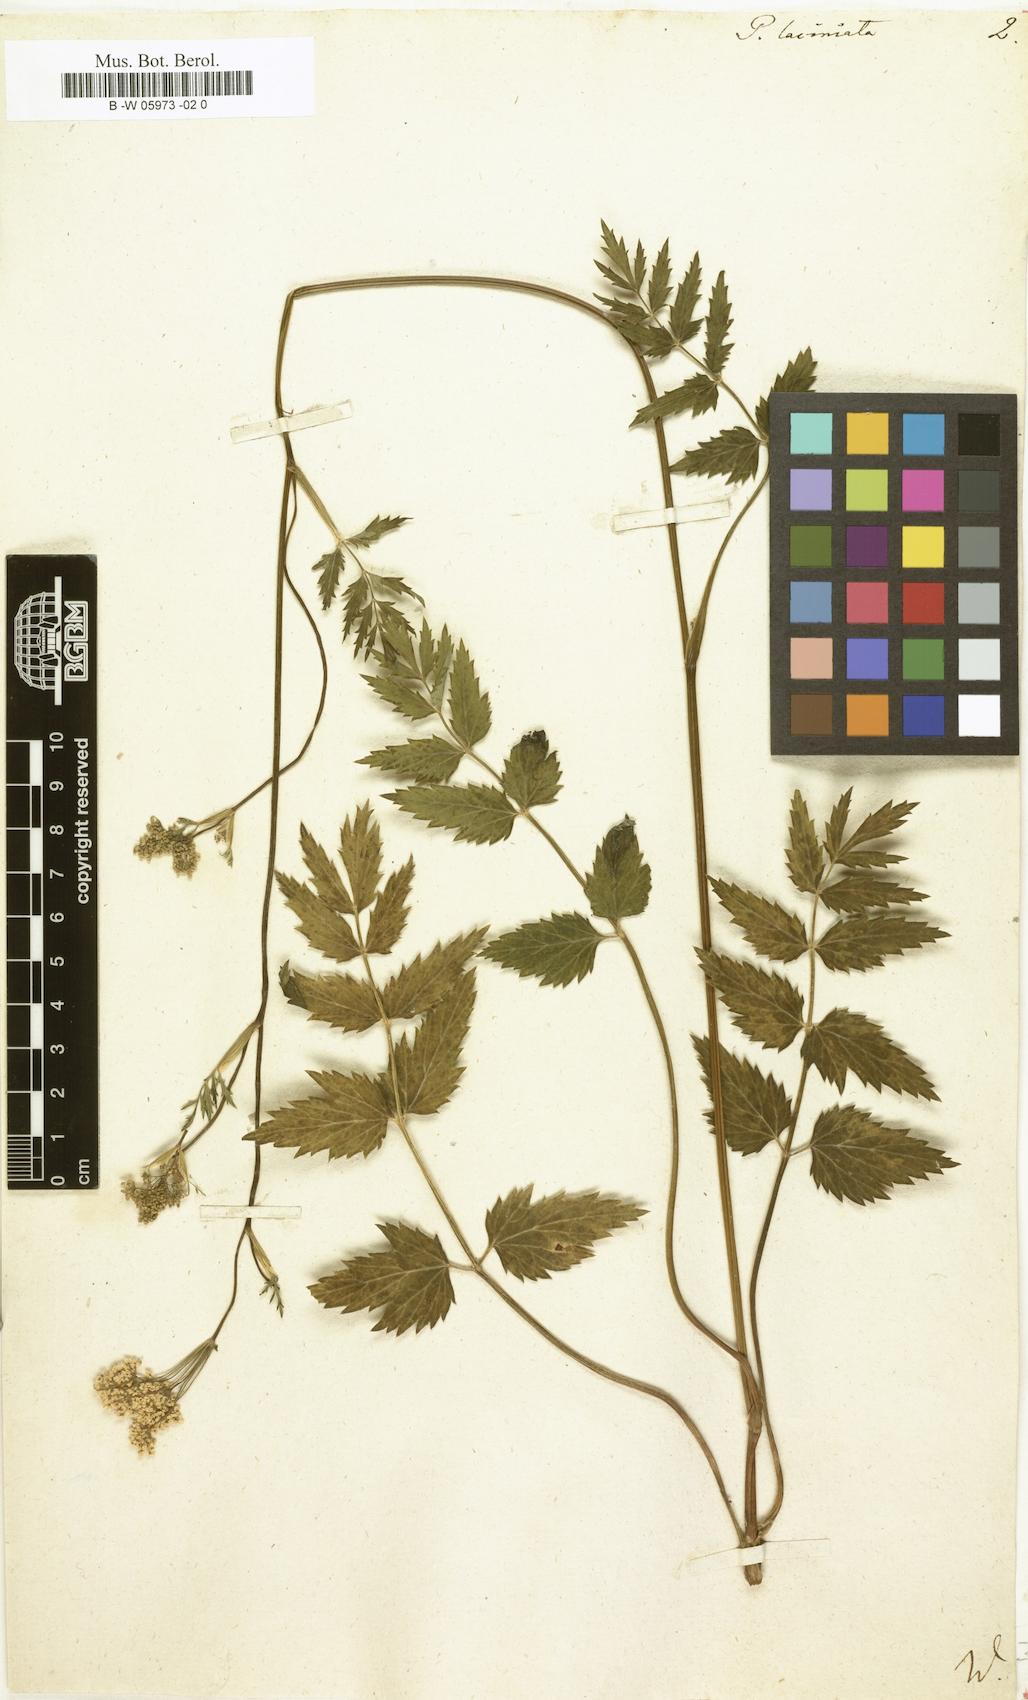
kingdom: Plantae
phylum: Tracheophyta
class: Magnoliopsida
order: Apiales
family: Apiaceae
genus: Pimpinella
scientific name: Pimpinella
